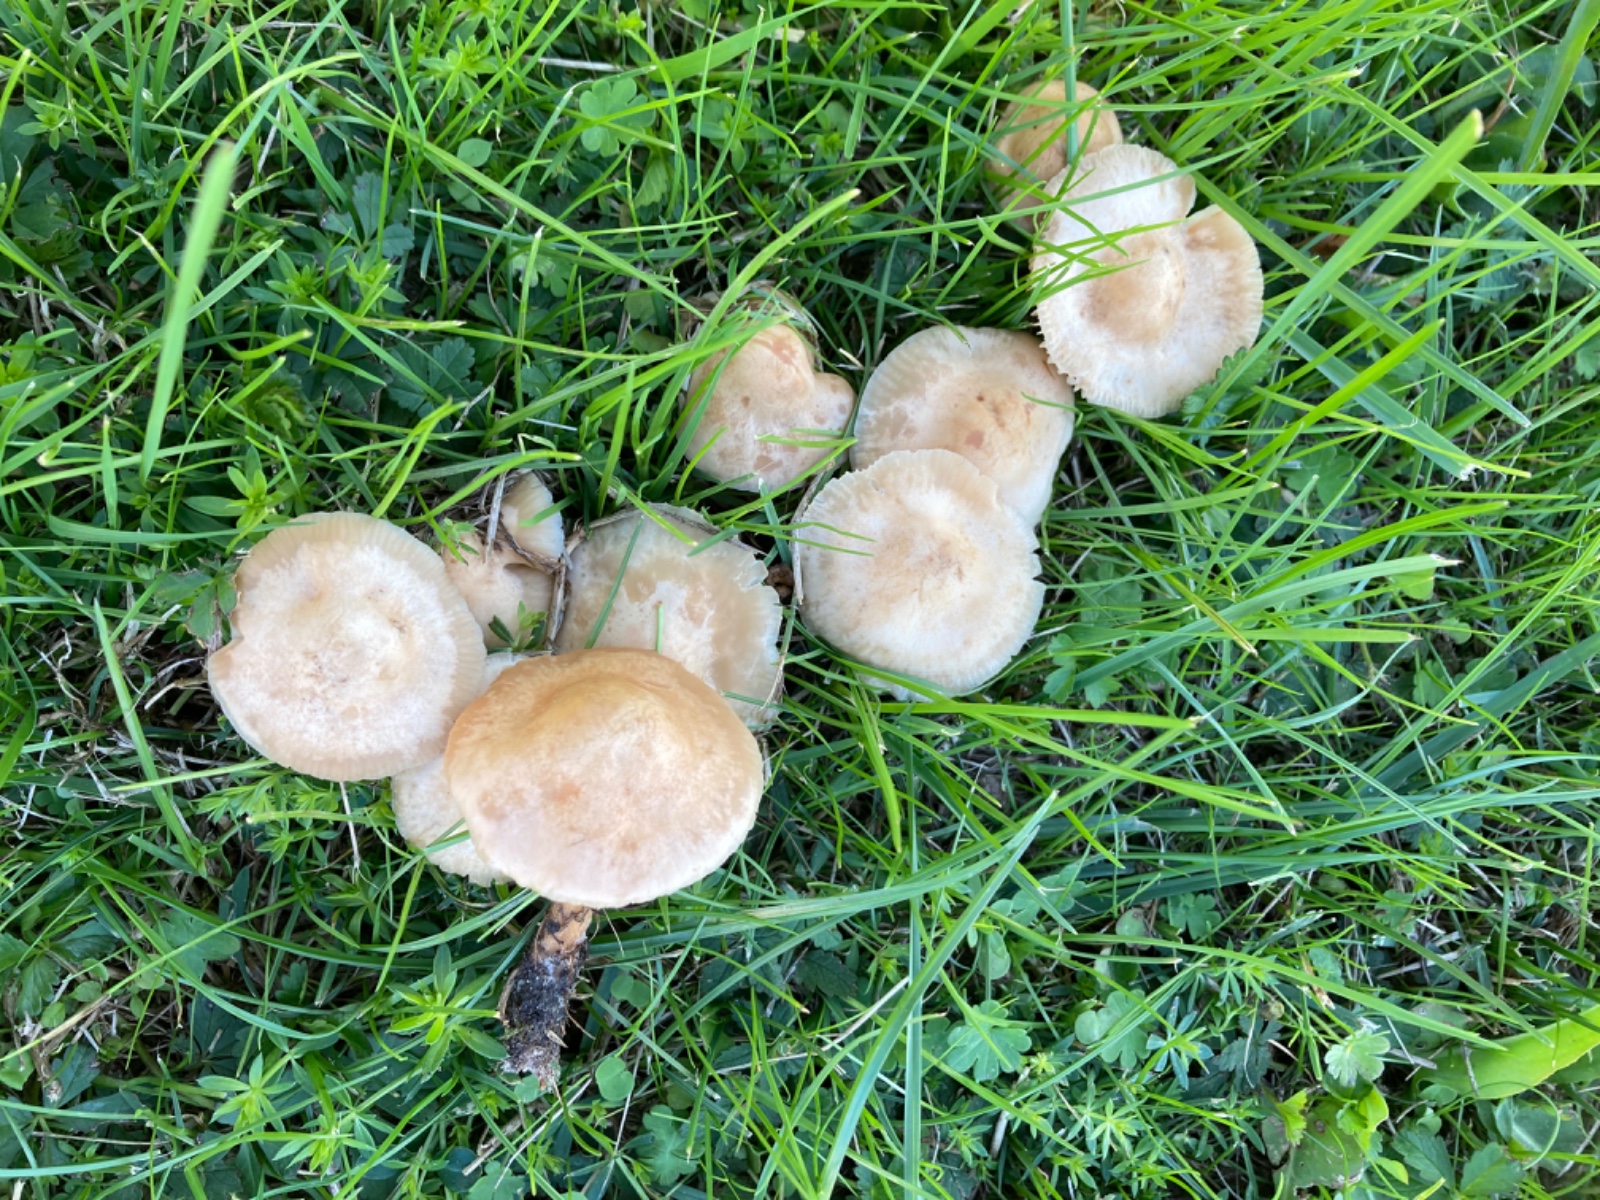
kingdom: Fungi
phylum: Basidiomycota
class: Agaricomycetes
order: Agaricales
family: Marasmiaceae
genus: Marasmius
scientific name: Marasmius oreades
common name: elledans-bruskhat
